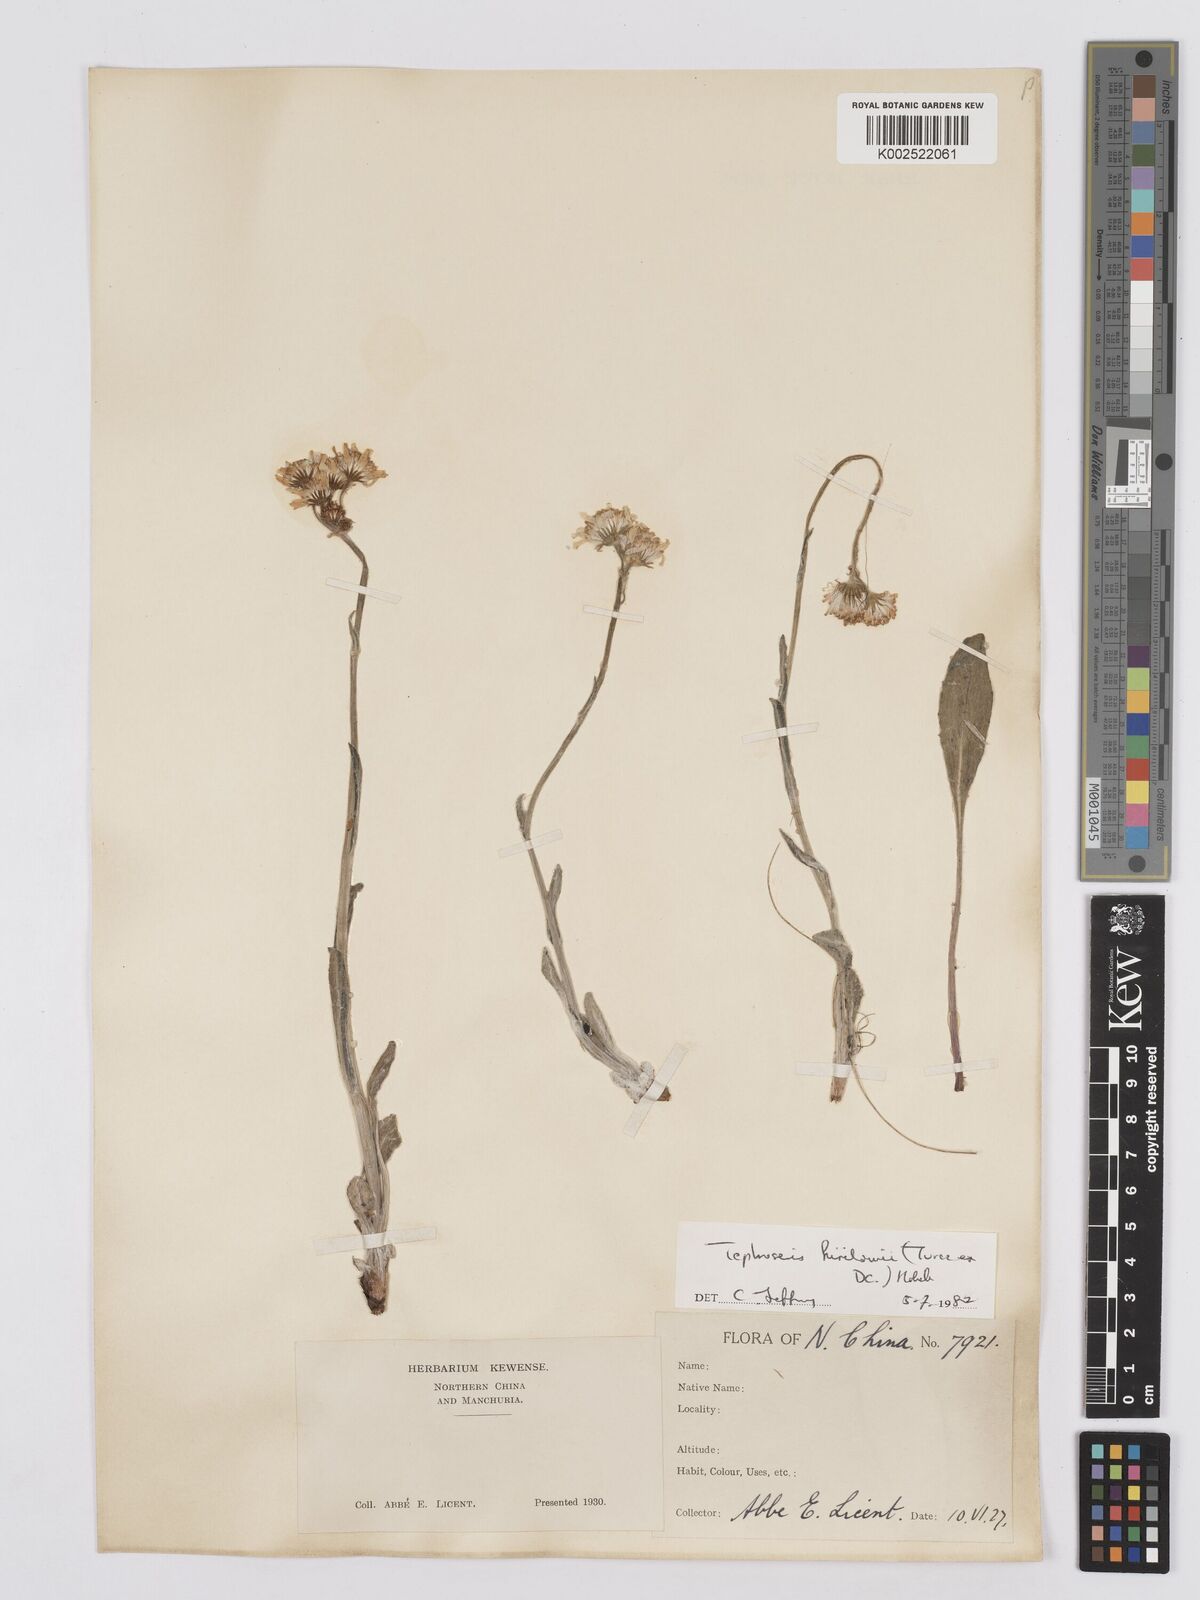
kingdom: Plantae
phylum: Tracheophyta
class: Magnoliopsida
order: Asterales
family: Asteraceae
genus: Tephroseris
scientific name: Tephroseris kirilowii
